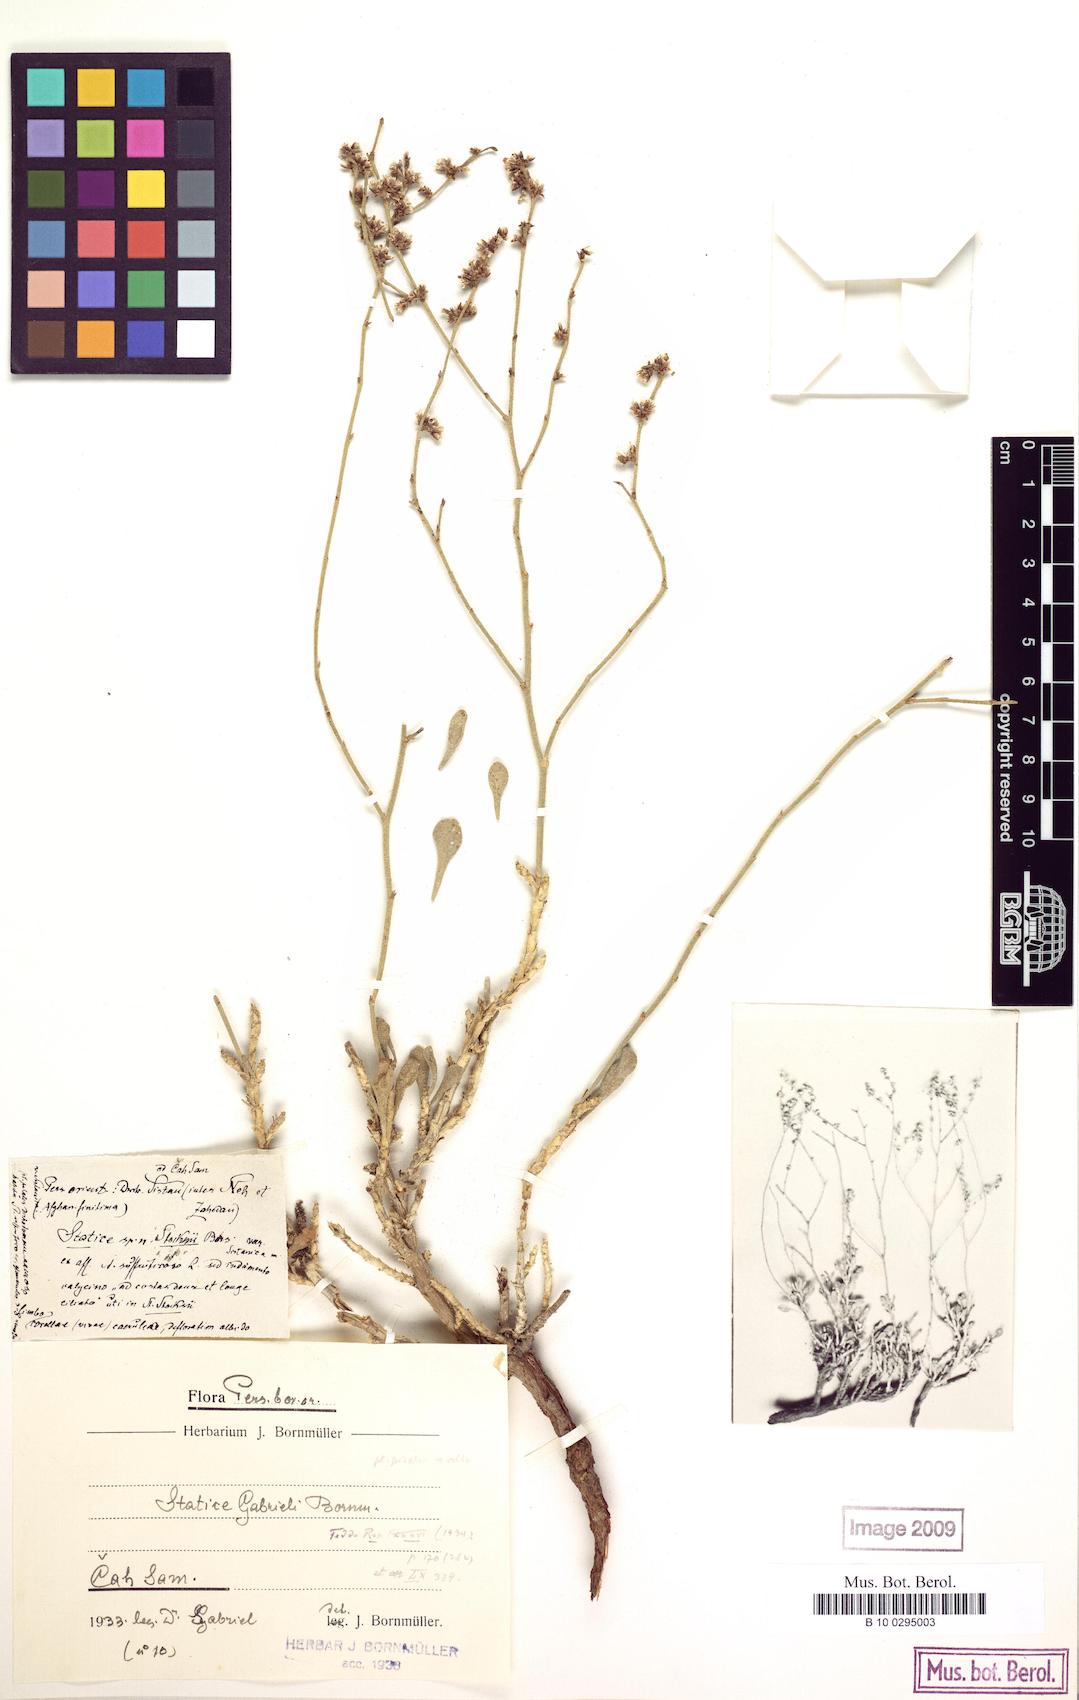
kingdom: Plantae
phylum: Tracheophyta
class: Magnoliopsida
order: Caryophyllales
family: Plumbaginaceae
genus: Limonium
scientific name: Limonium gabrieli
